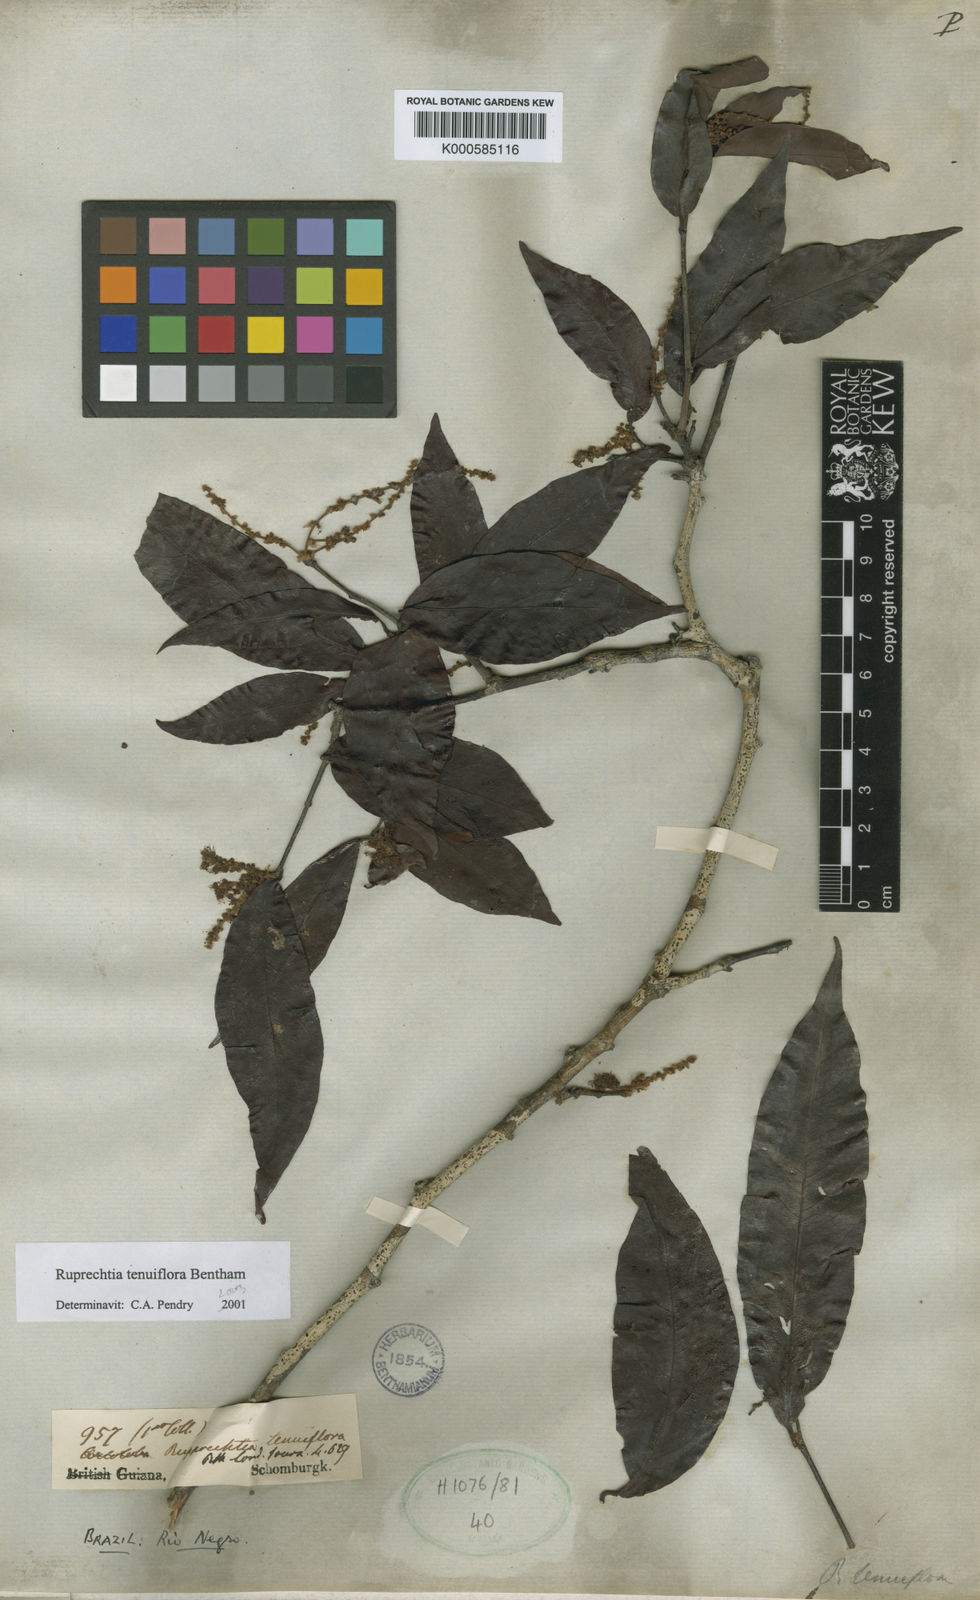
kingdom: Plantae
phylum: Tracheophyta
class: Magnoliopsida
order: Caryophyllales
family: Polygonaceae
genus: Ruprechtia
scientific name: Ruprechtia tenuiflora
